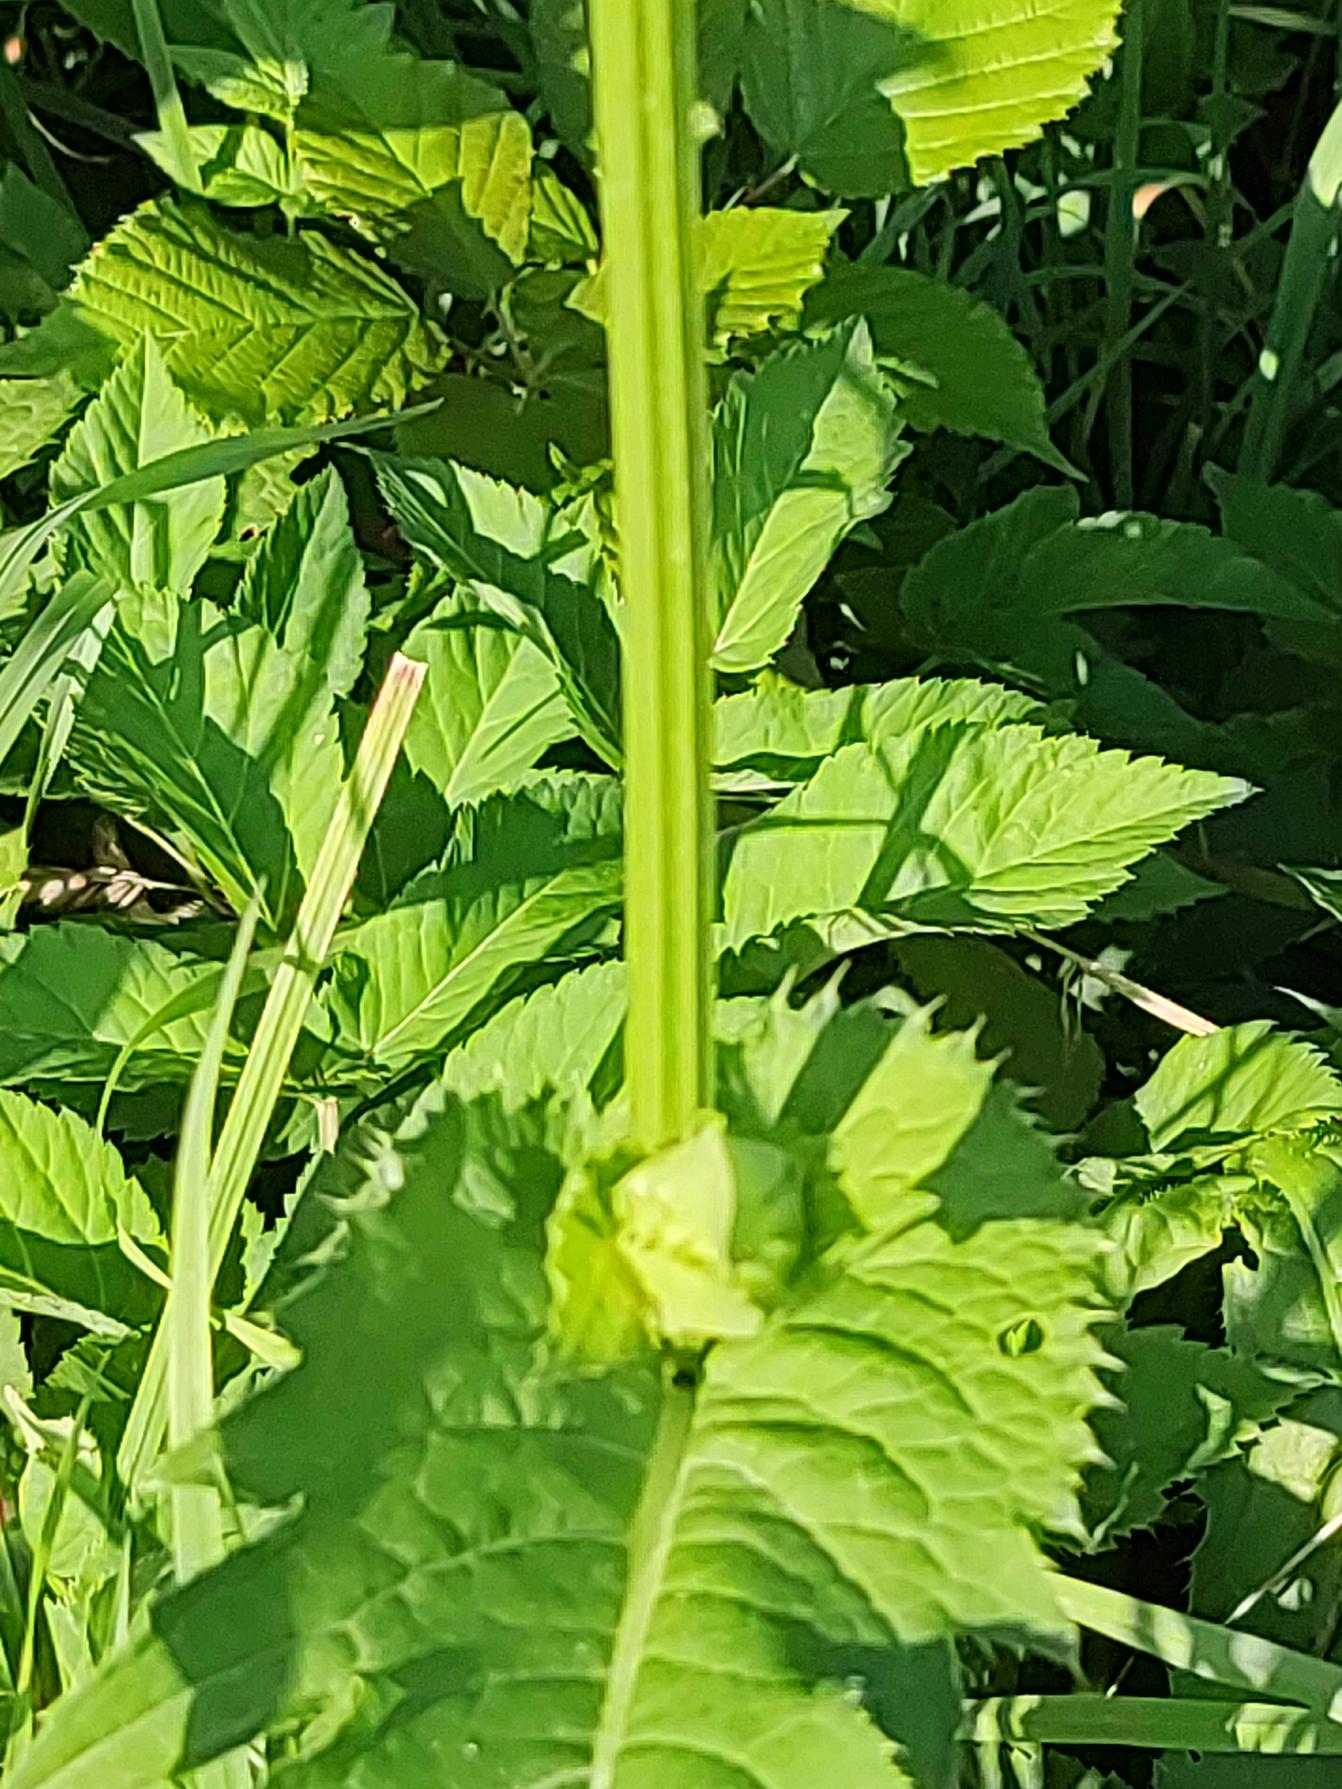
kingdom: Plantae
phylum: Tracheophyta
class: Magnoliopsida
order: Asterales
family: Asteraceae
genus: Cirsium
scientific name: Cirsium oleraceum
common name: Kål-tidsel
